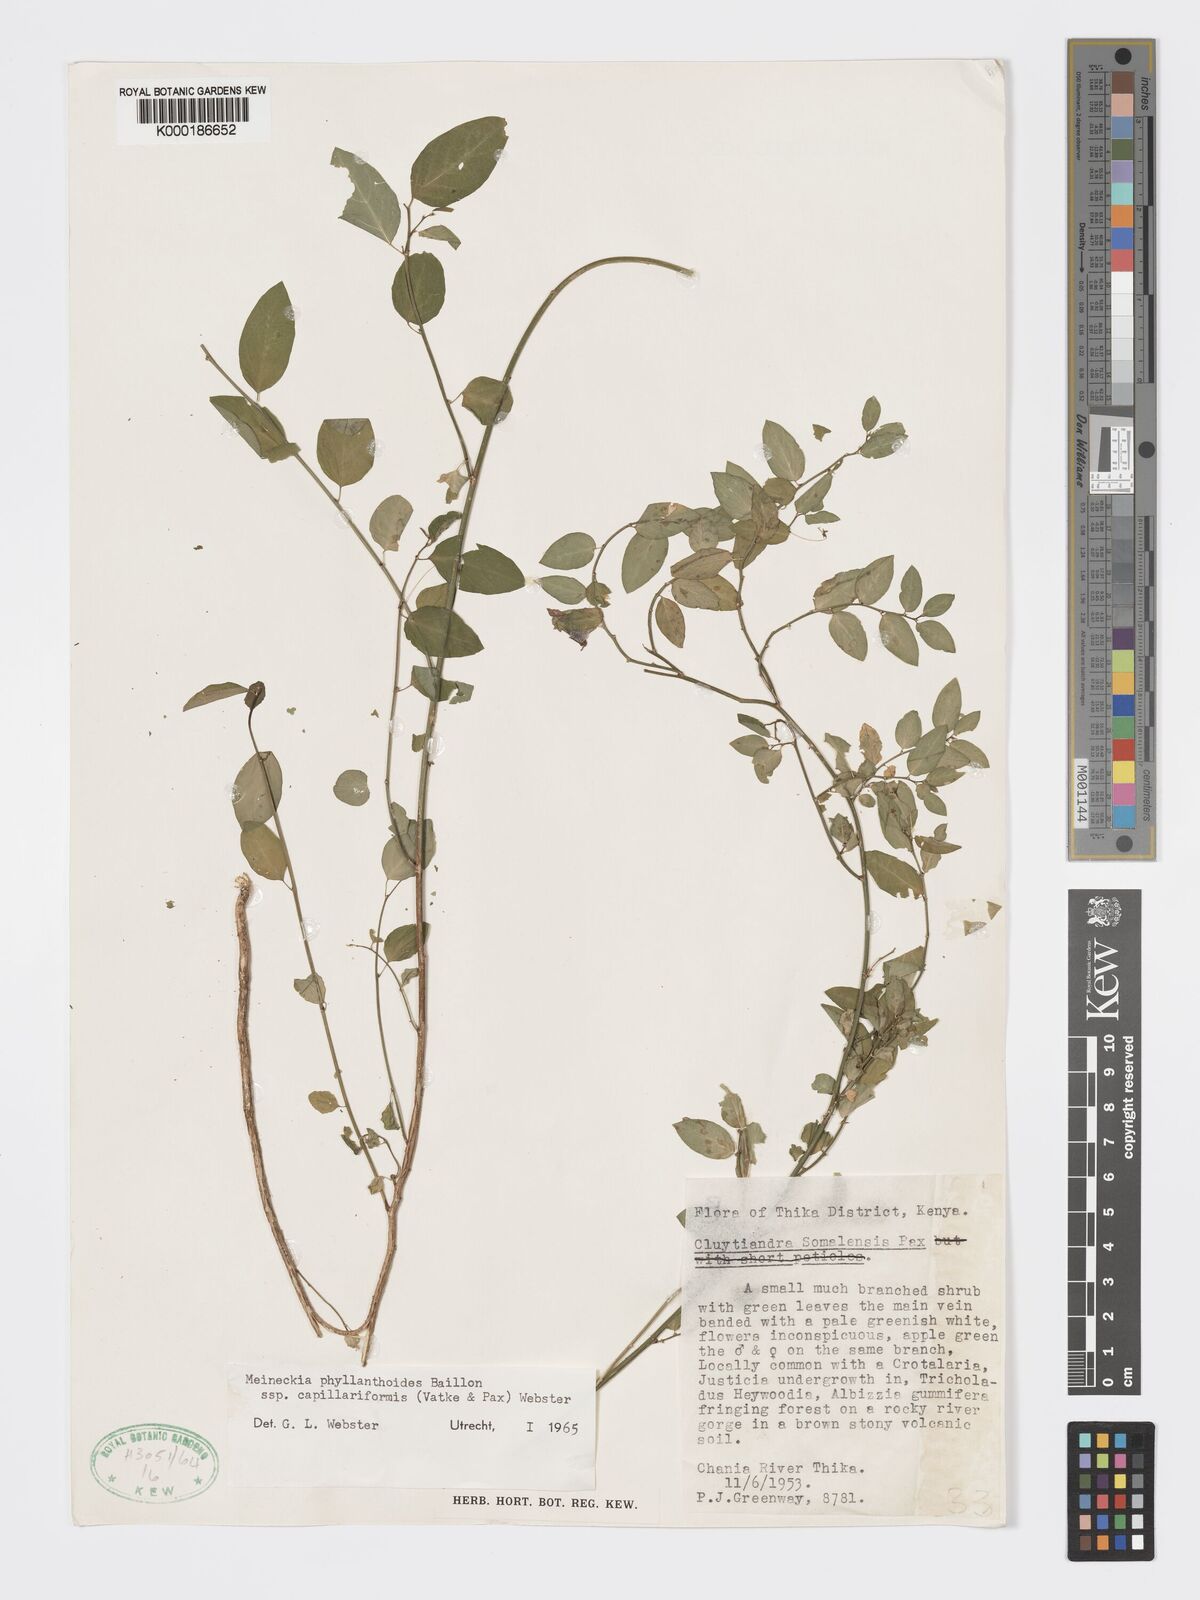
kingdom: Plantae
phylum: Tracheophyta
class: Magnoliopsida
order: Malpighiales
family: Phyllanthaceae
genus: Meineckia
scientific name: Meineckia phyllanthoides
